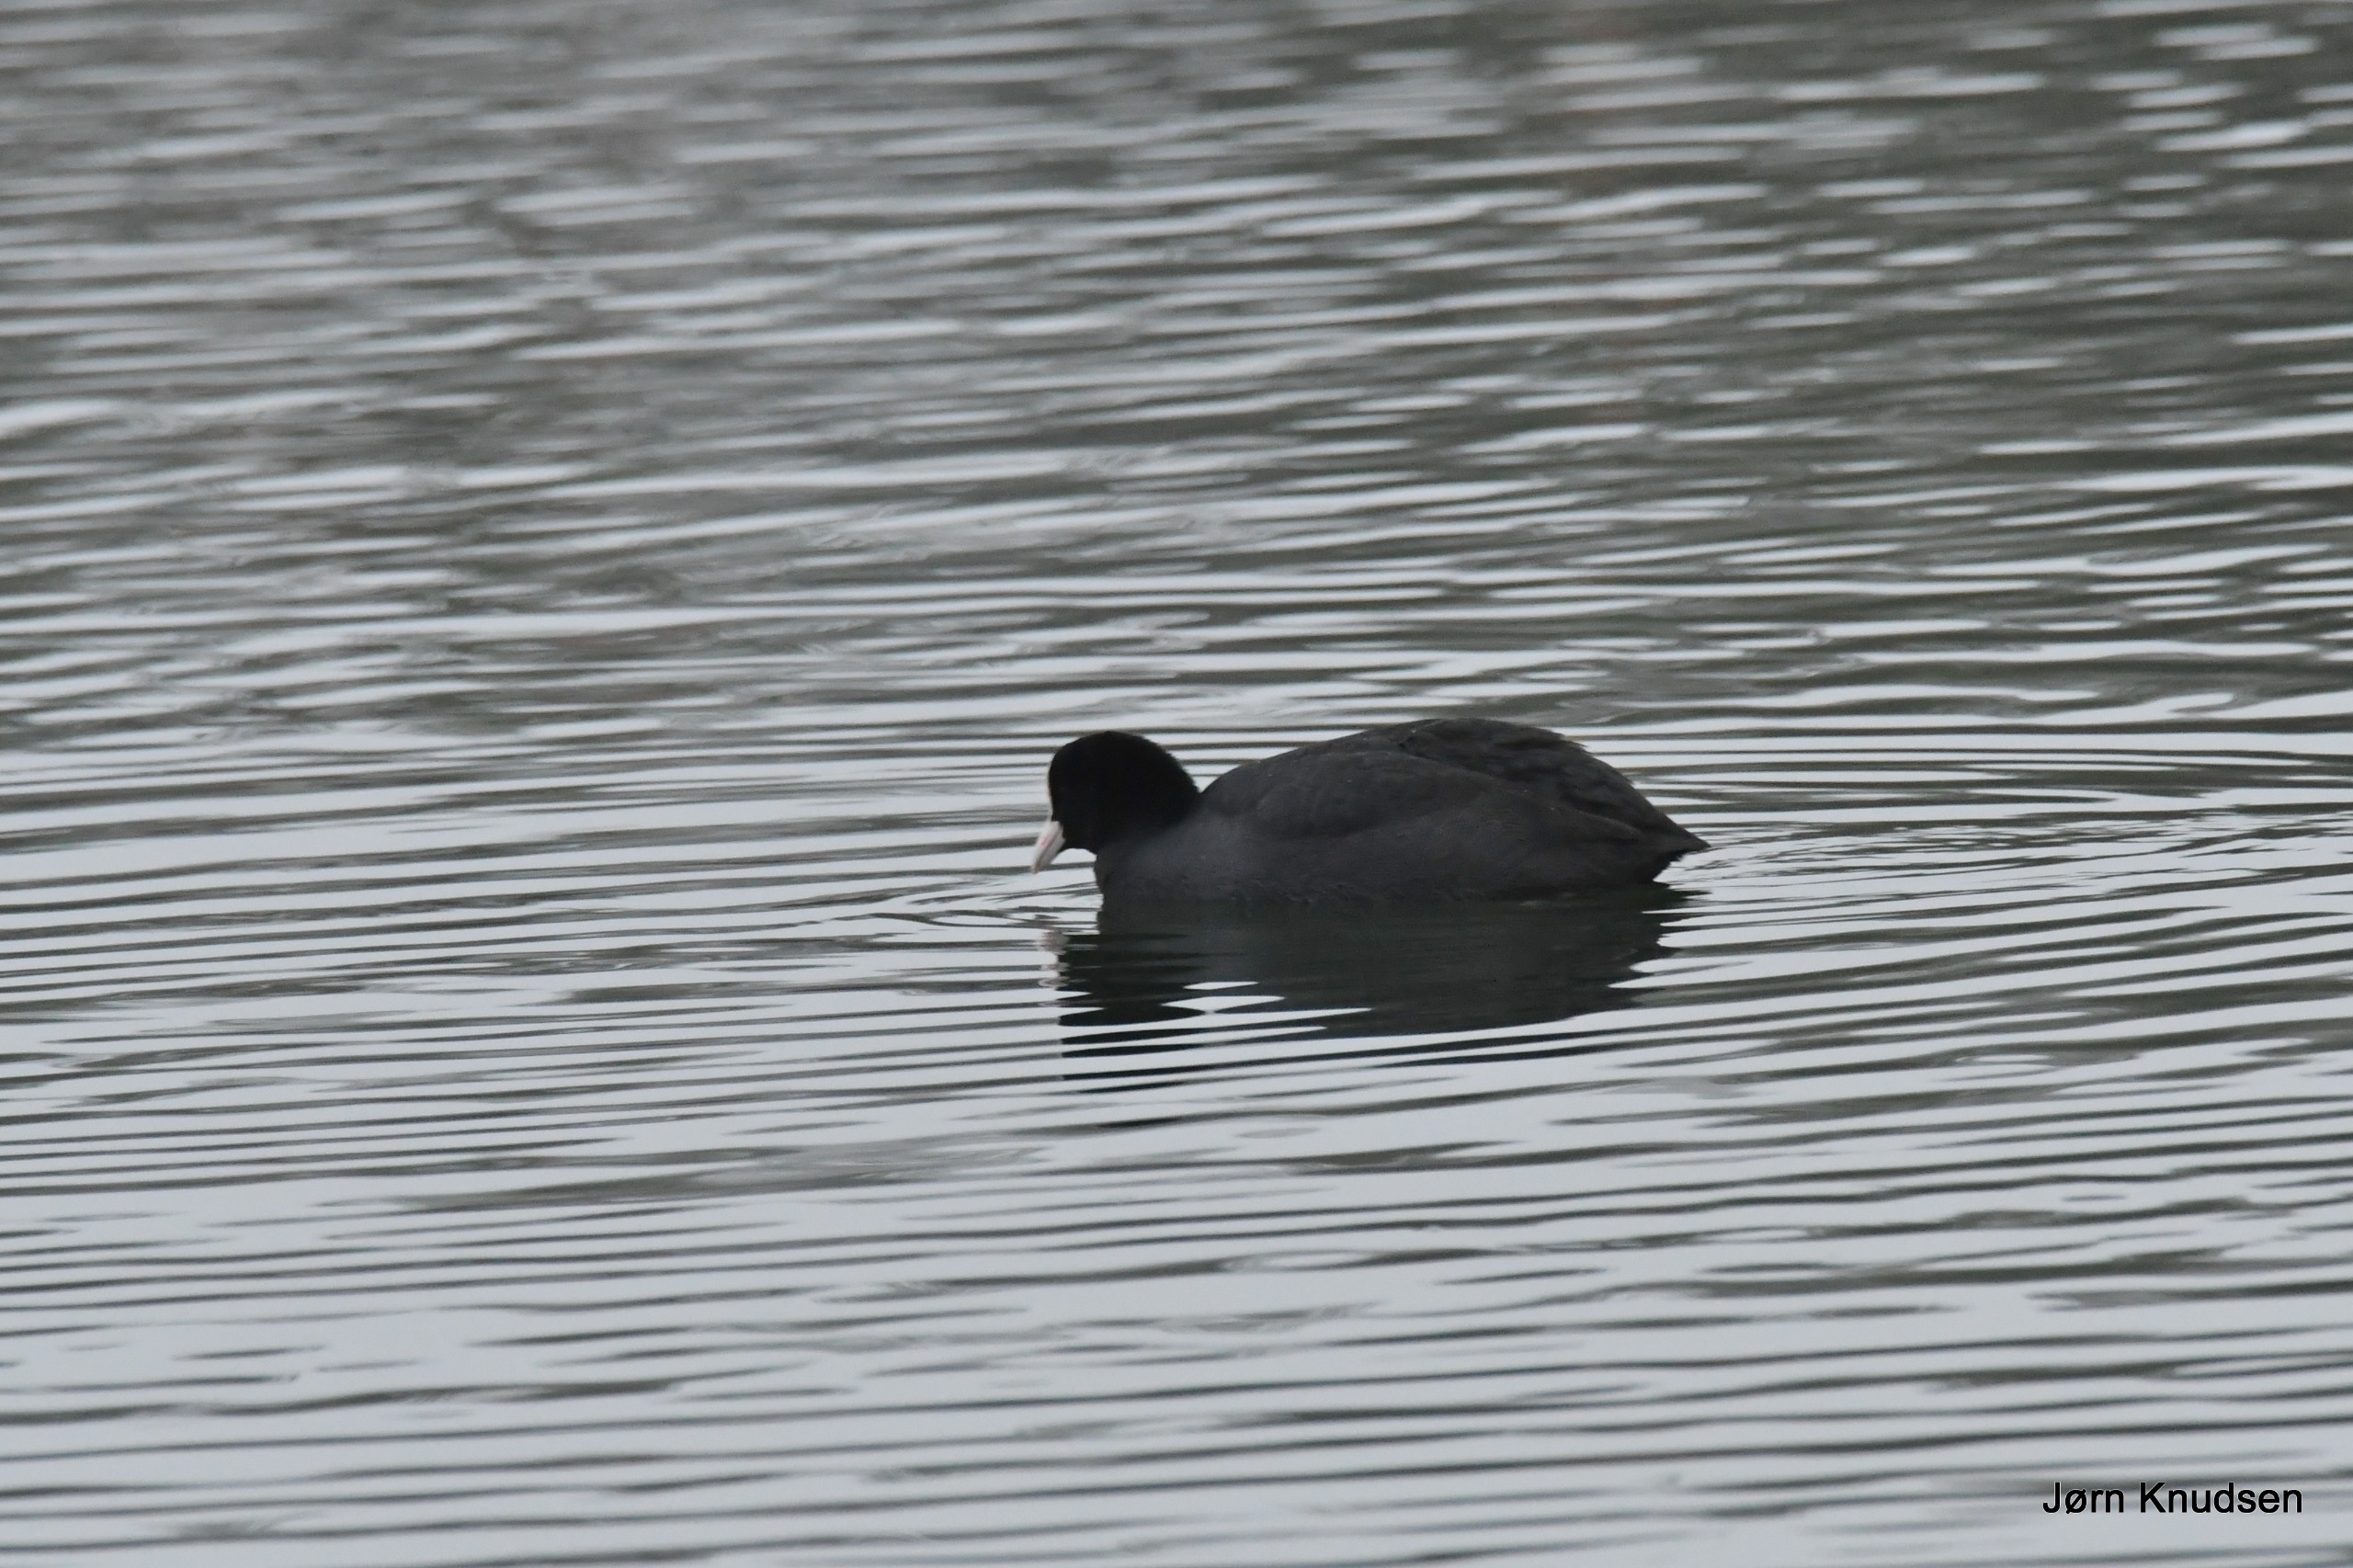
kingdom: Animalia
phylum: Chordata
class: Aves
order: Gruiformes
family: Rallidae
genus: Fulica
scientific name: Fulica atra
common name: Blishøne
